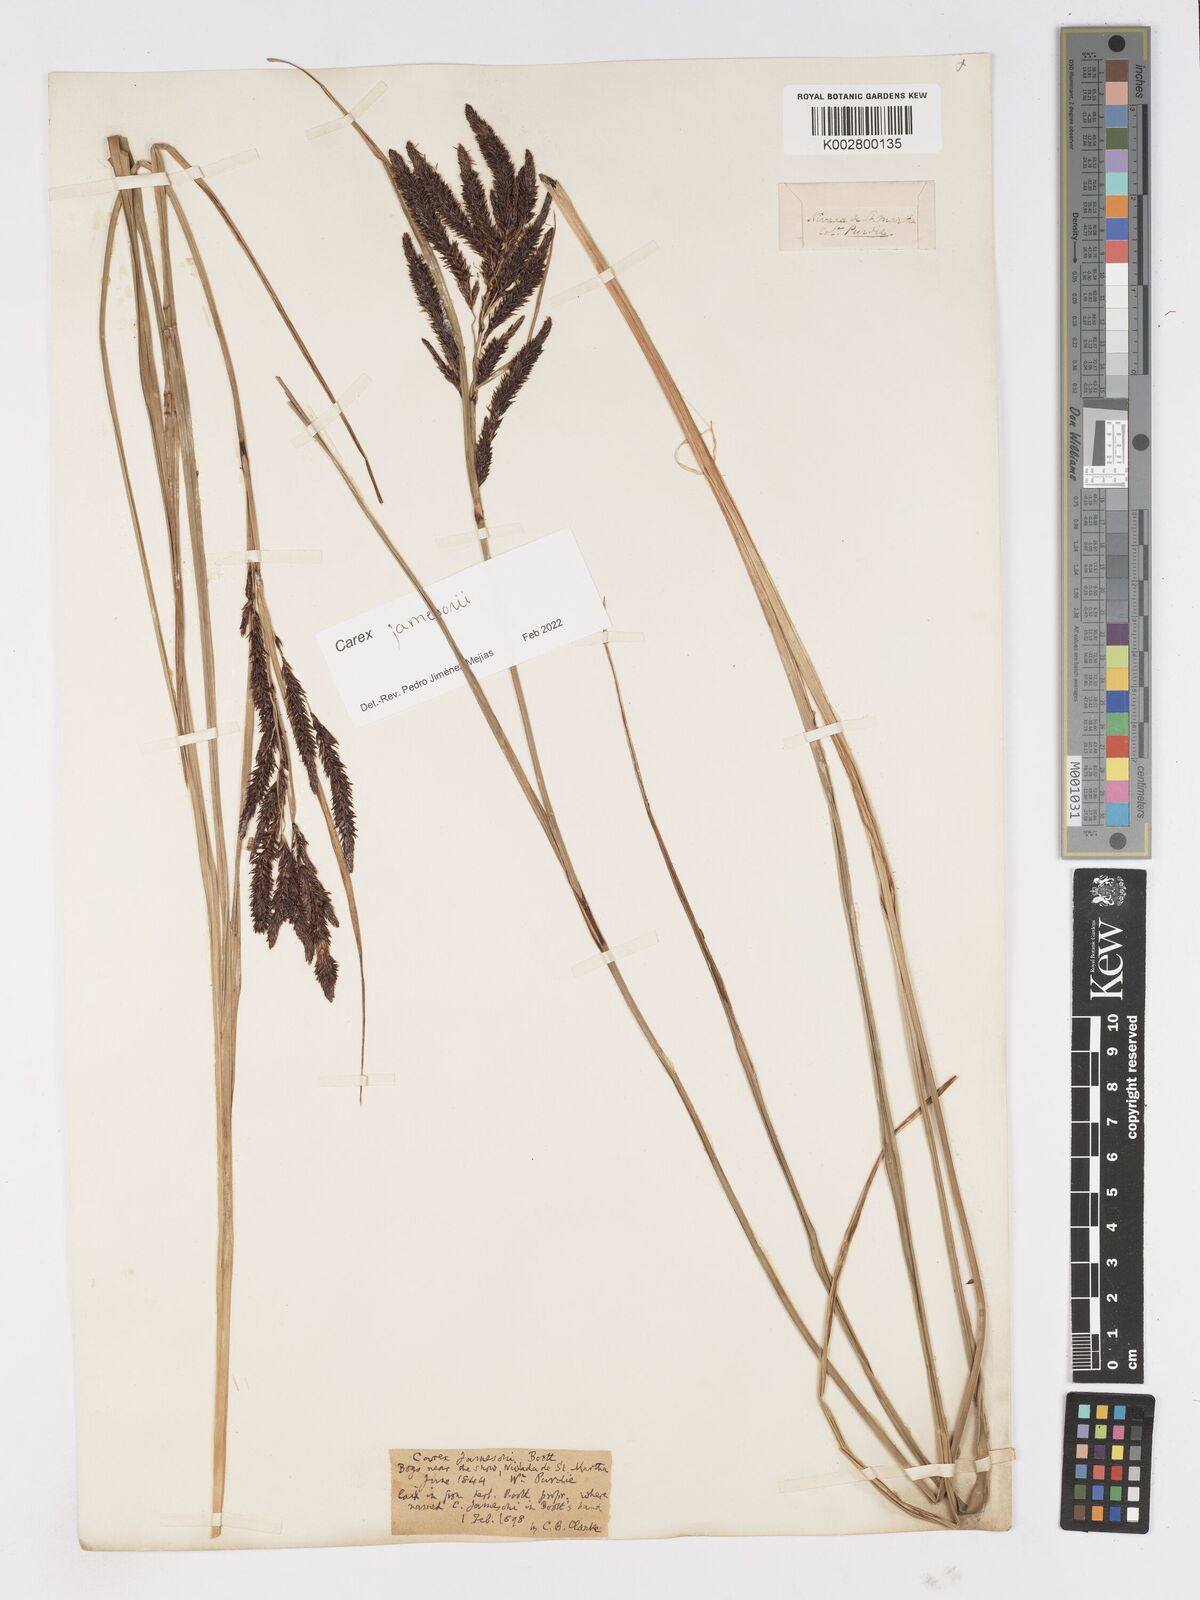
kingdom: Plantae
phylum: Tracheophyta
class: Liliopsida
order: Poales
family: Cyperaceae
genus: Carex
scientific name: Carex jamesonii
